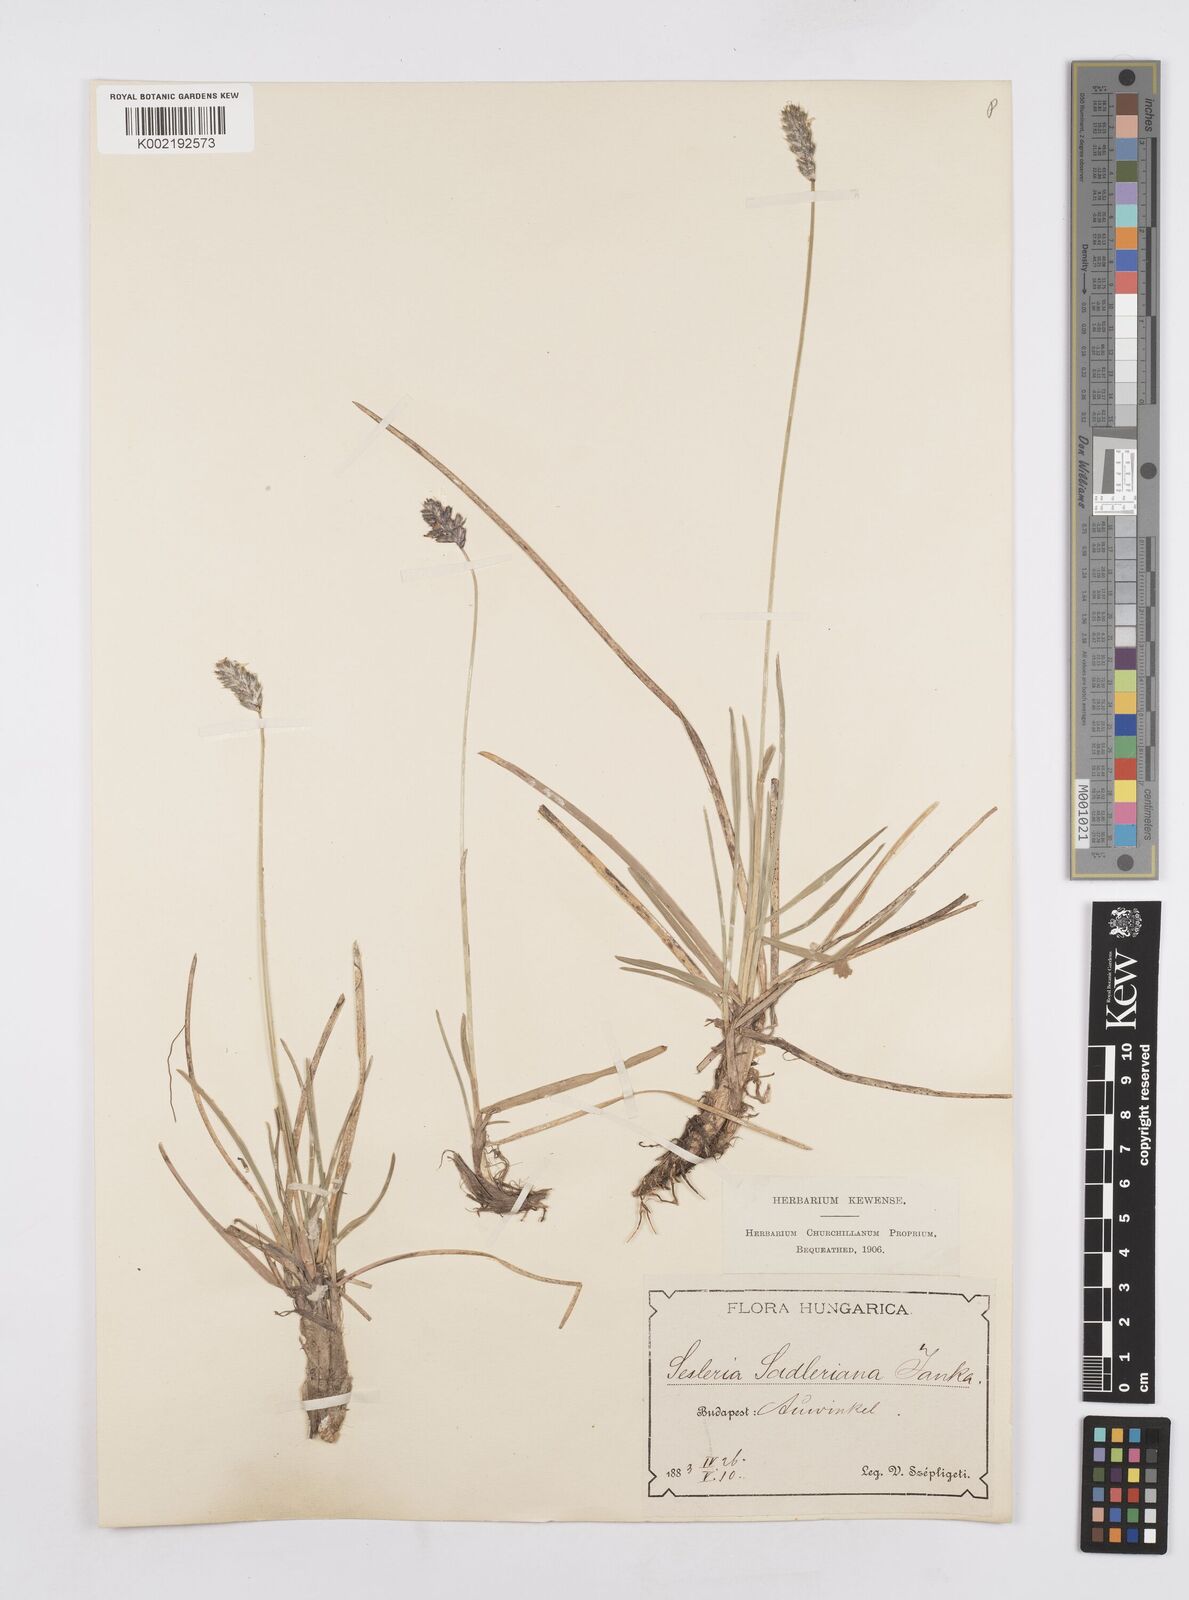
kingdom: Plantae
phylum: Tracheophyta
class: Liliopsida
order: Poales
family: Poaceae
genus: Sesleria
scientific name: Sesleria sadleriana
